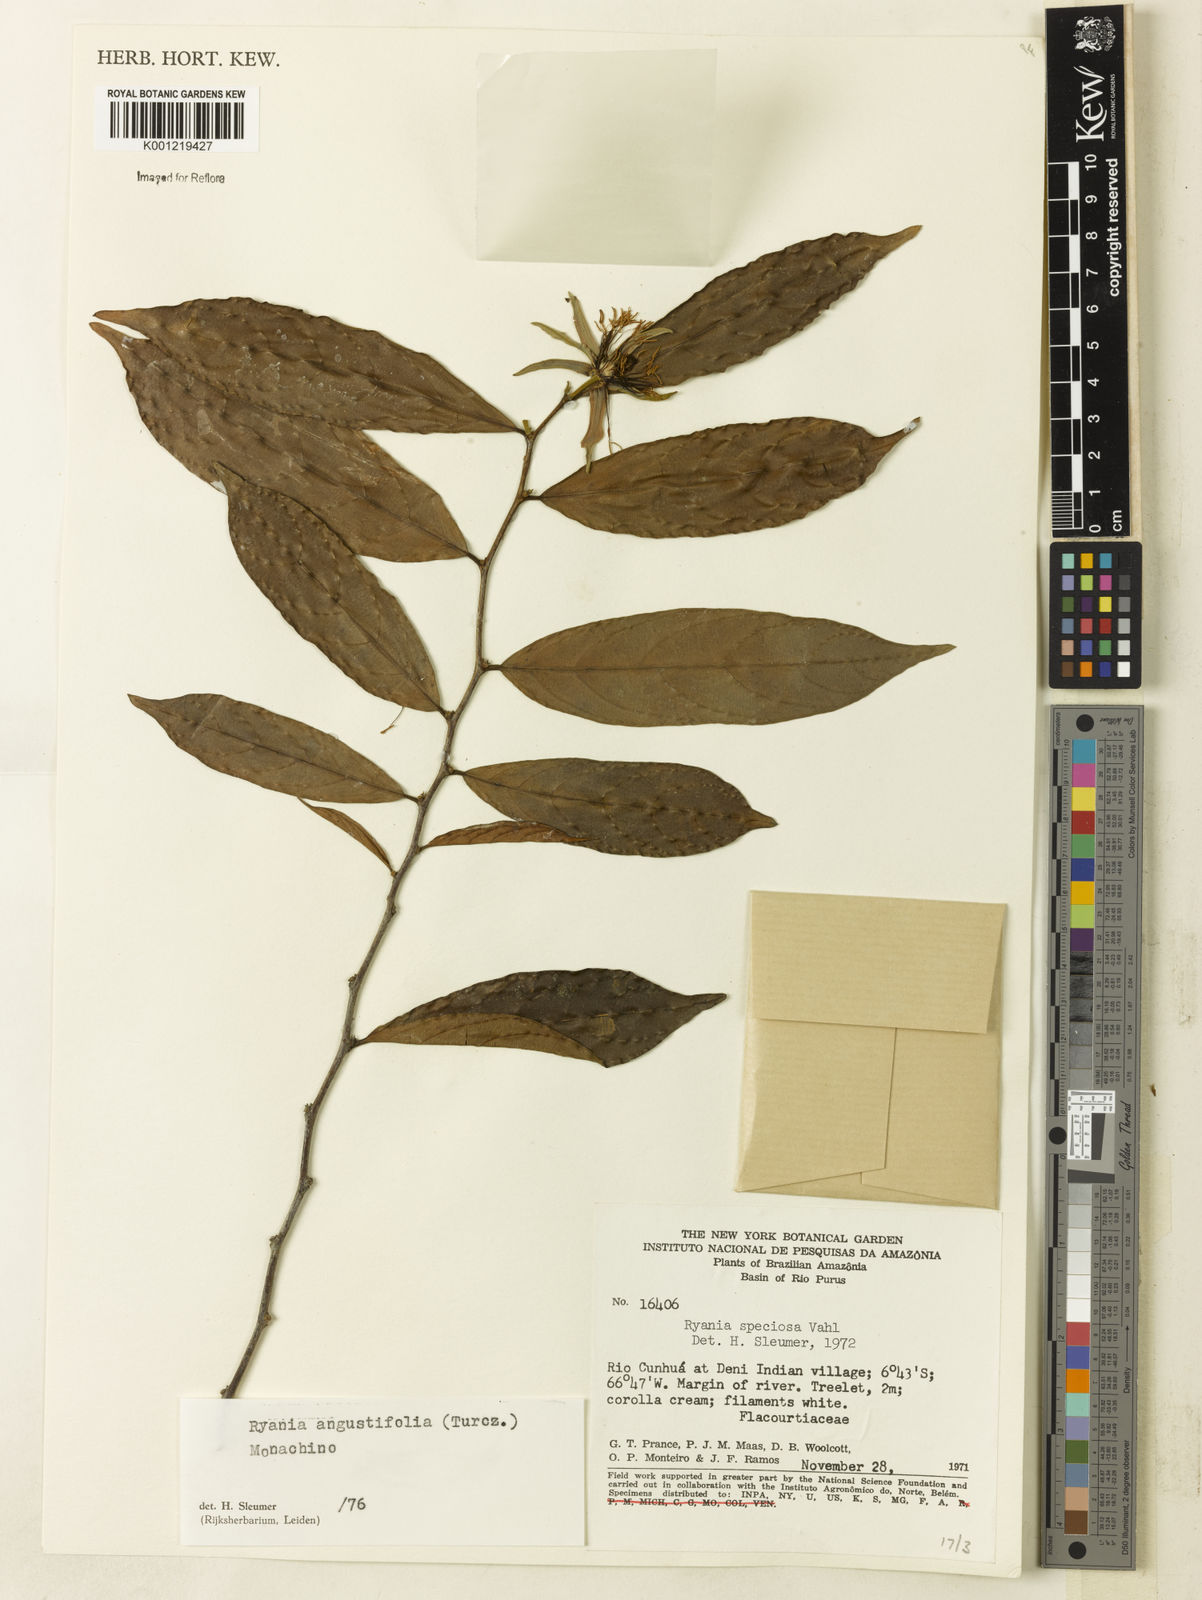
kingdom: Plantae
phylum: Tracheophyta
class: Magnoliopsida
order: Malpighiales
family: Salicaceae
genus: Ryania
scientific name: Ryania angustifolia
